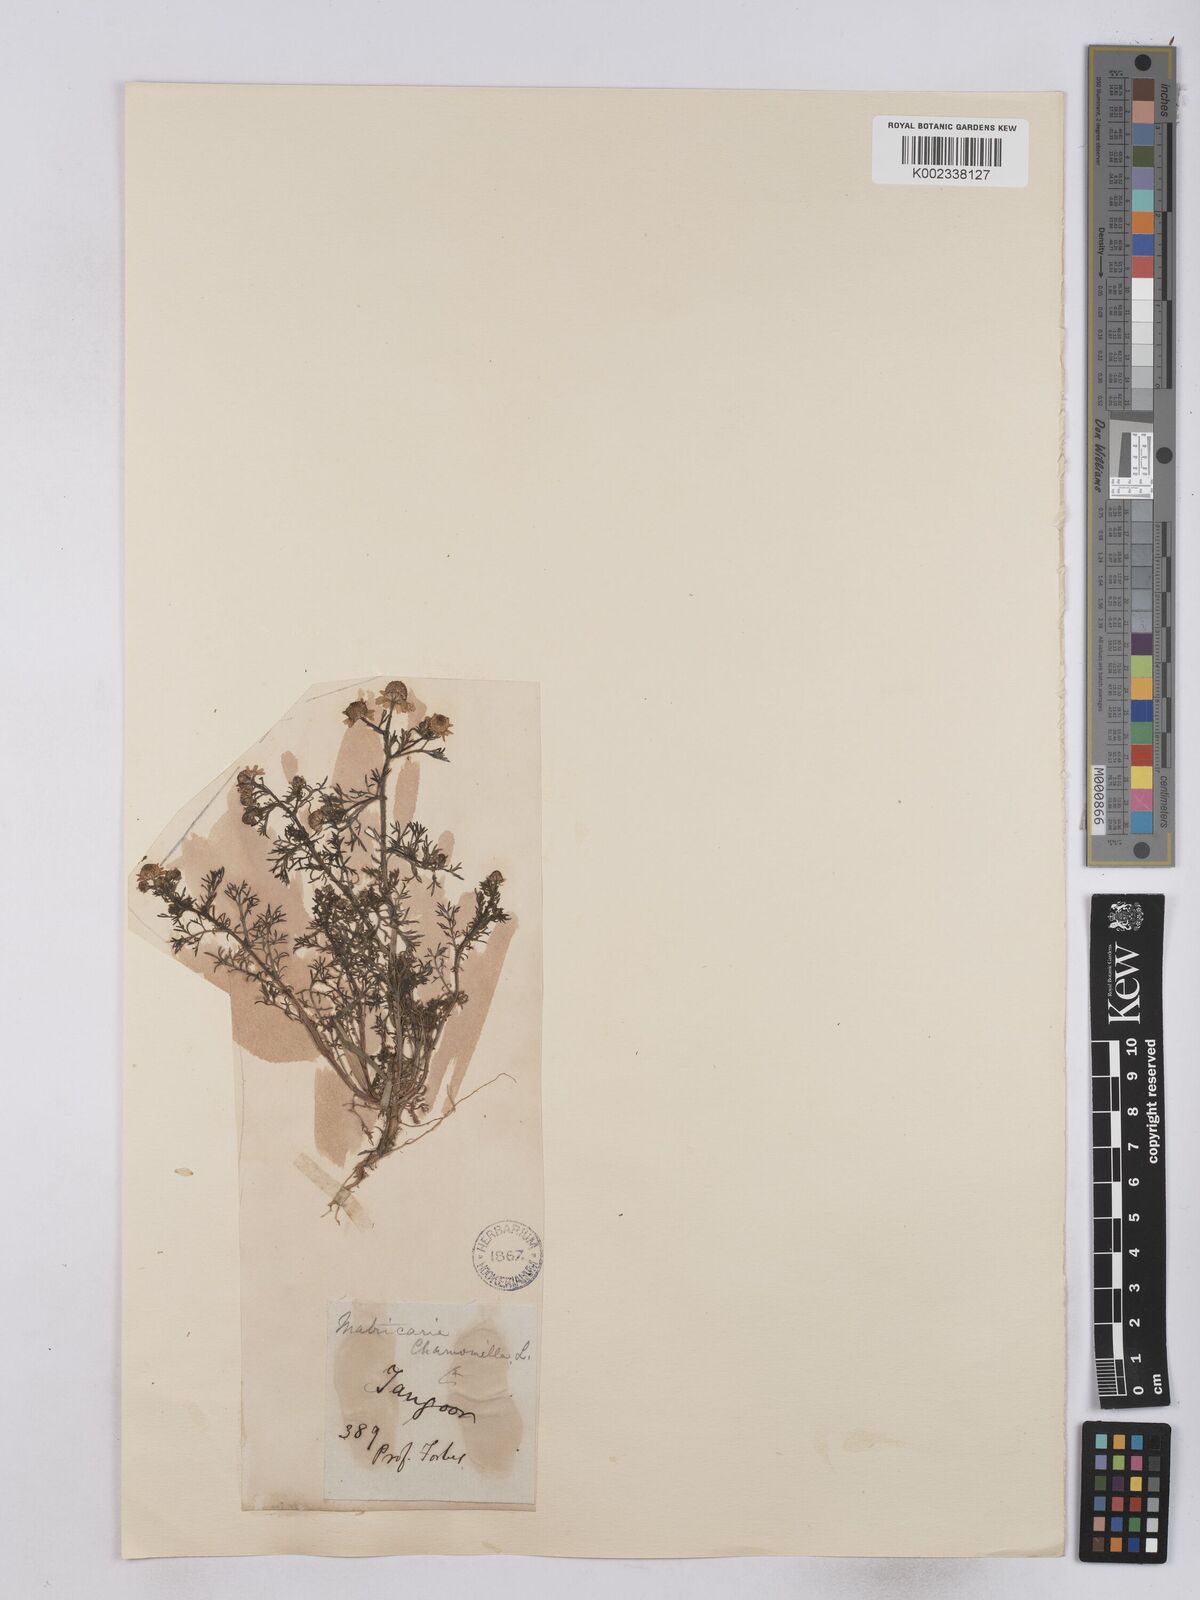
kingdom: Plantae
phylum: Tracheophyta
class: Magnoliopsida
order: Asterales
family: Asteraceae
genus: Matricaria
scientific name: Matricaria chamomilla
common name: Scented mayweed
